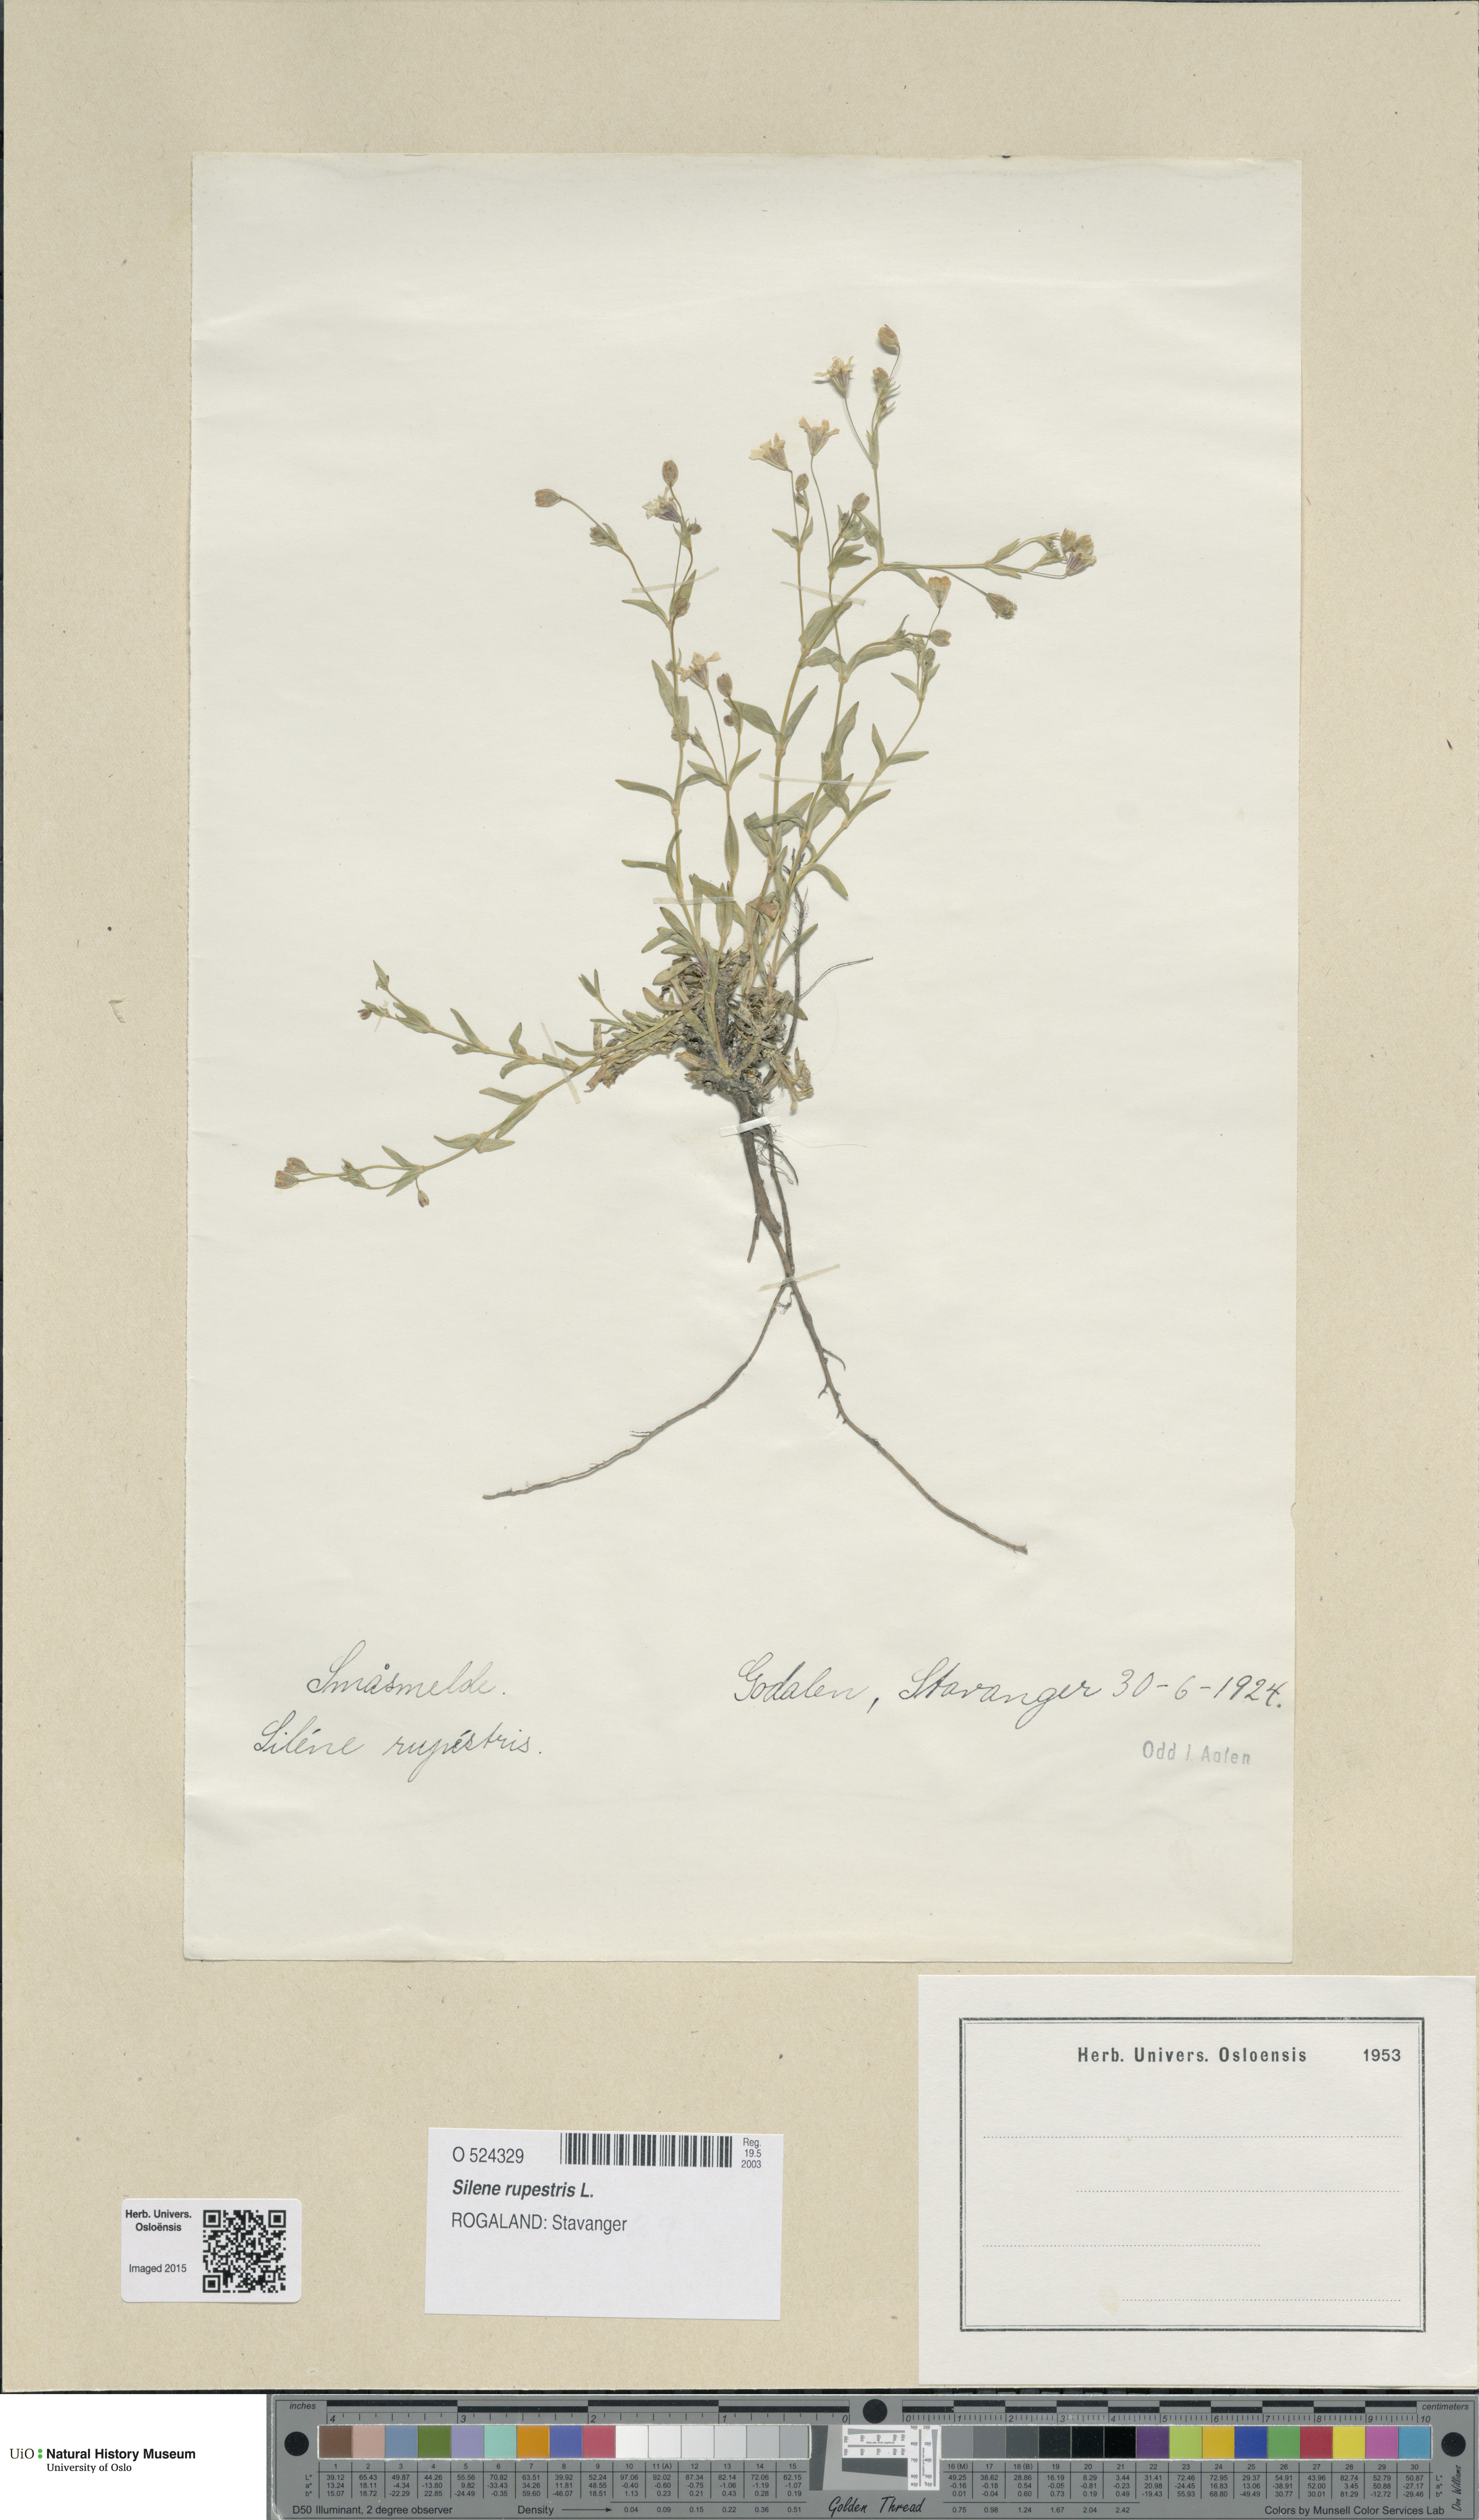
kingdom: Plantae
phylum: Tracheophyta
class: Magnoliopsida
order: Caryophyllales
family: Caryophyllaceae
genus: Atocion
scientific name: Atocion rupestre
